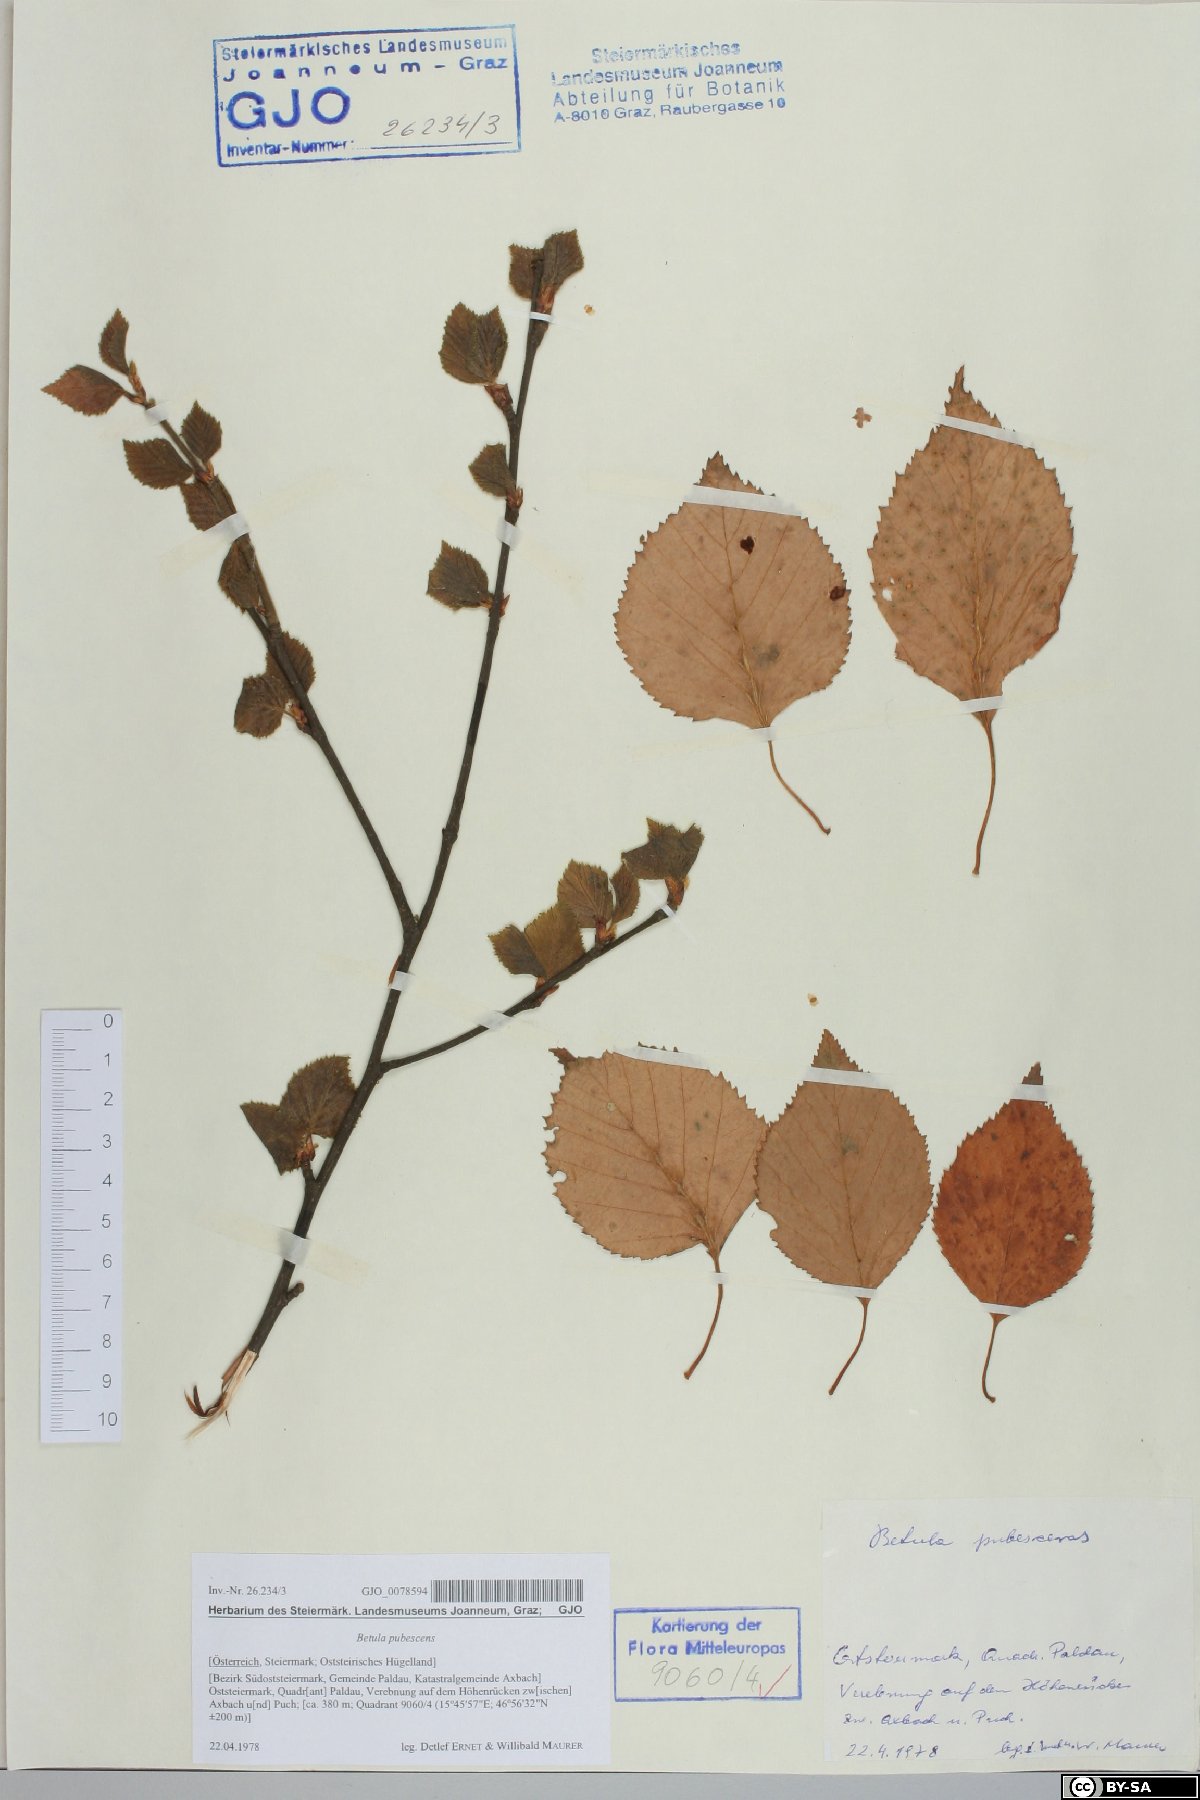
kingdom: Plantae
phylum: Tracheophyta
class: Magnoliopsida
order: Fagales
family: Betulaceae
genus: Betula
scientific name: Betula pubescens
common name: Downy birch
